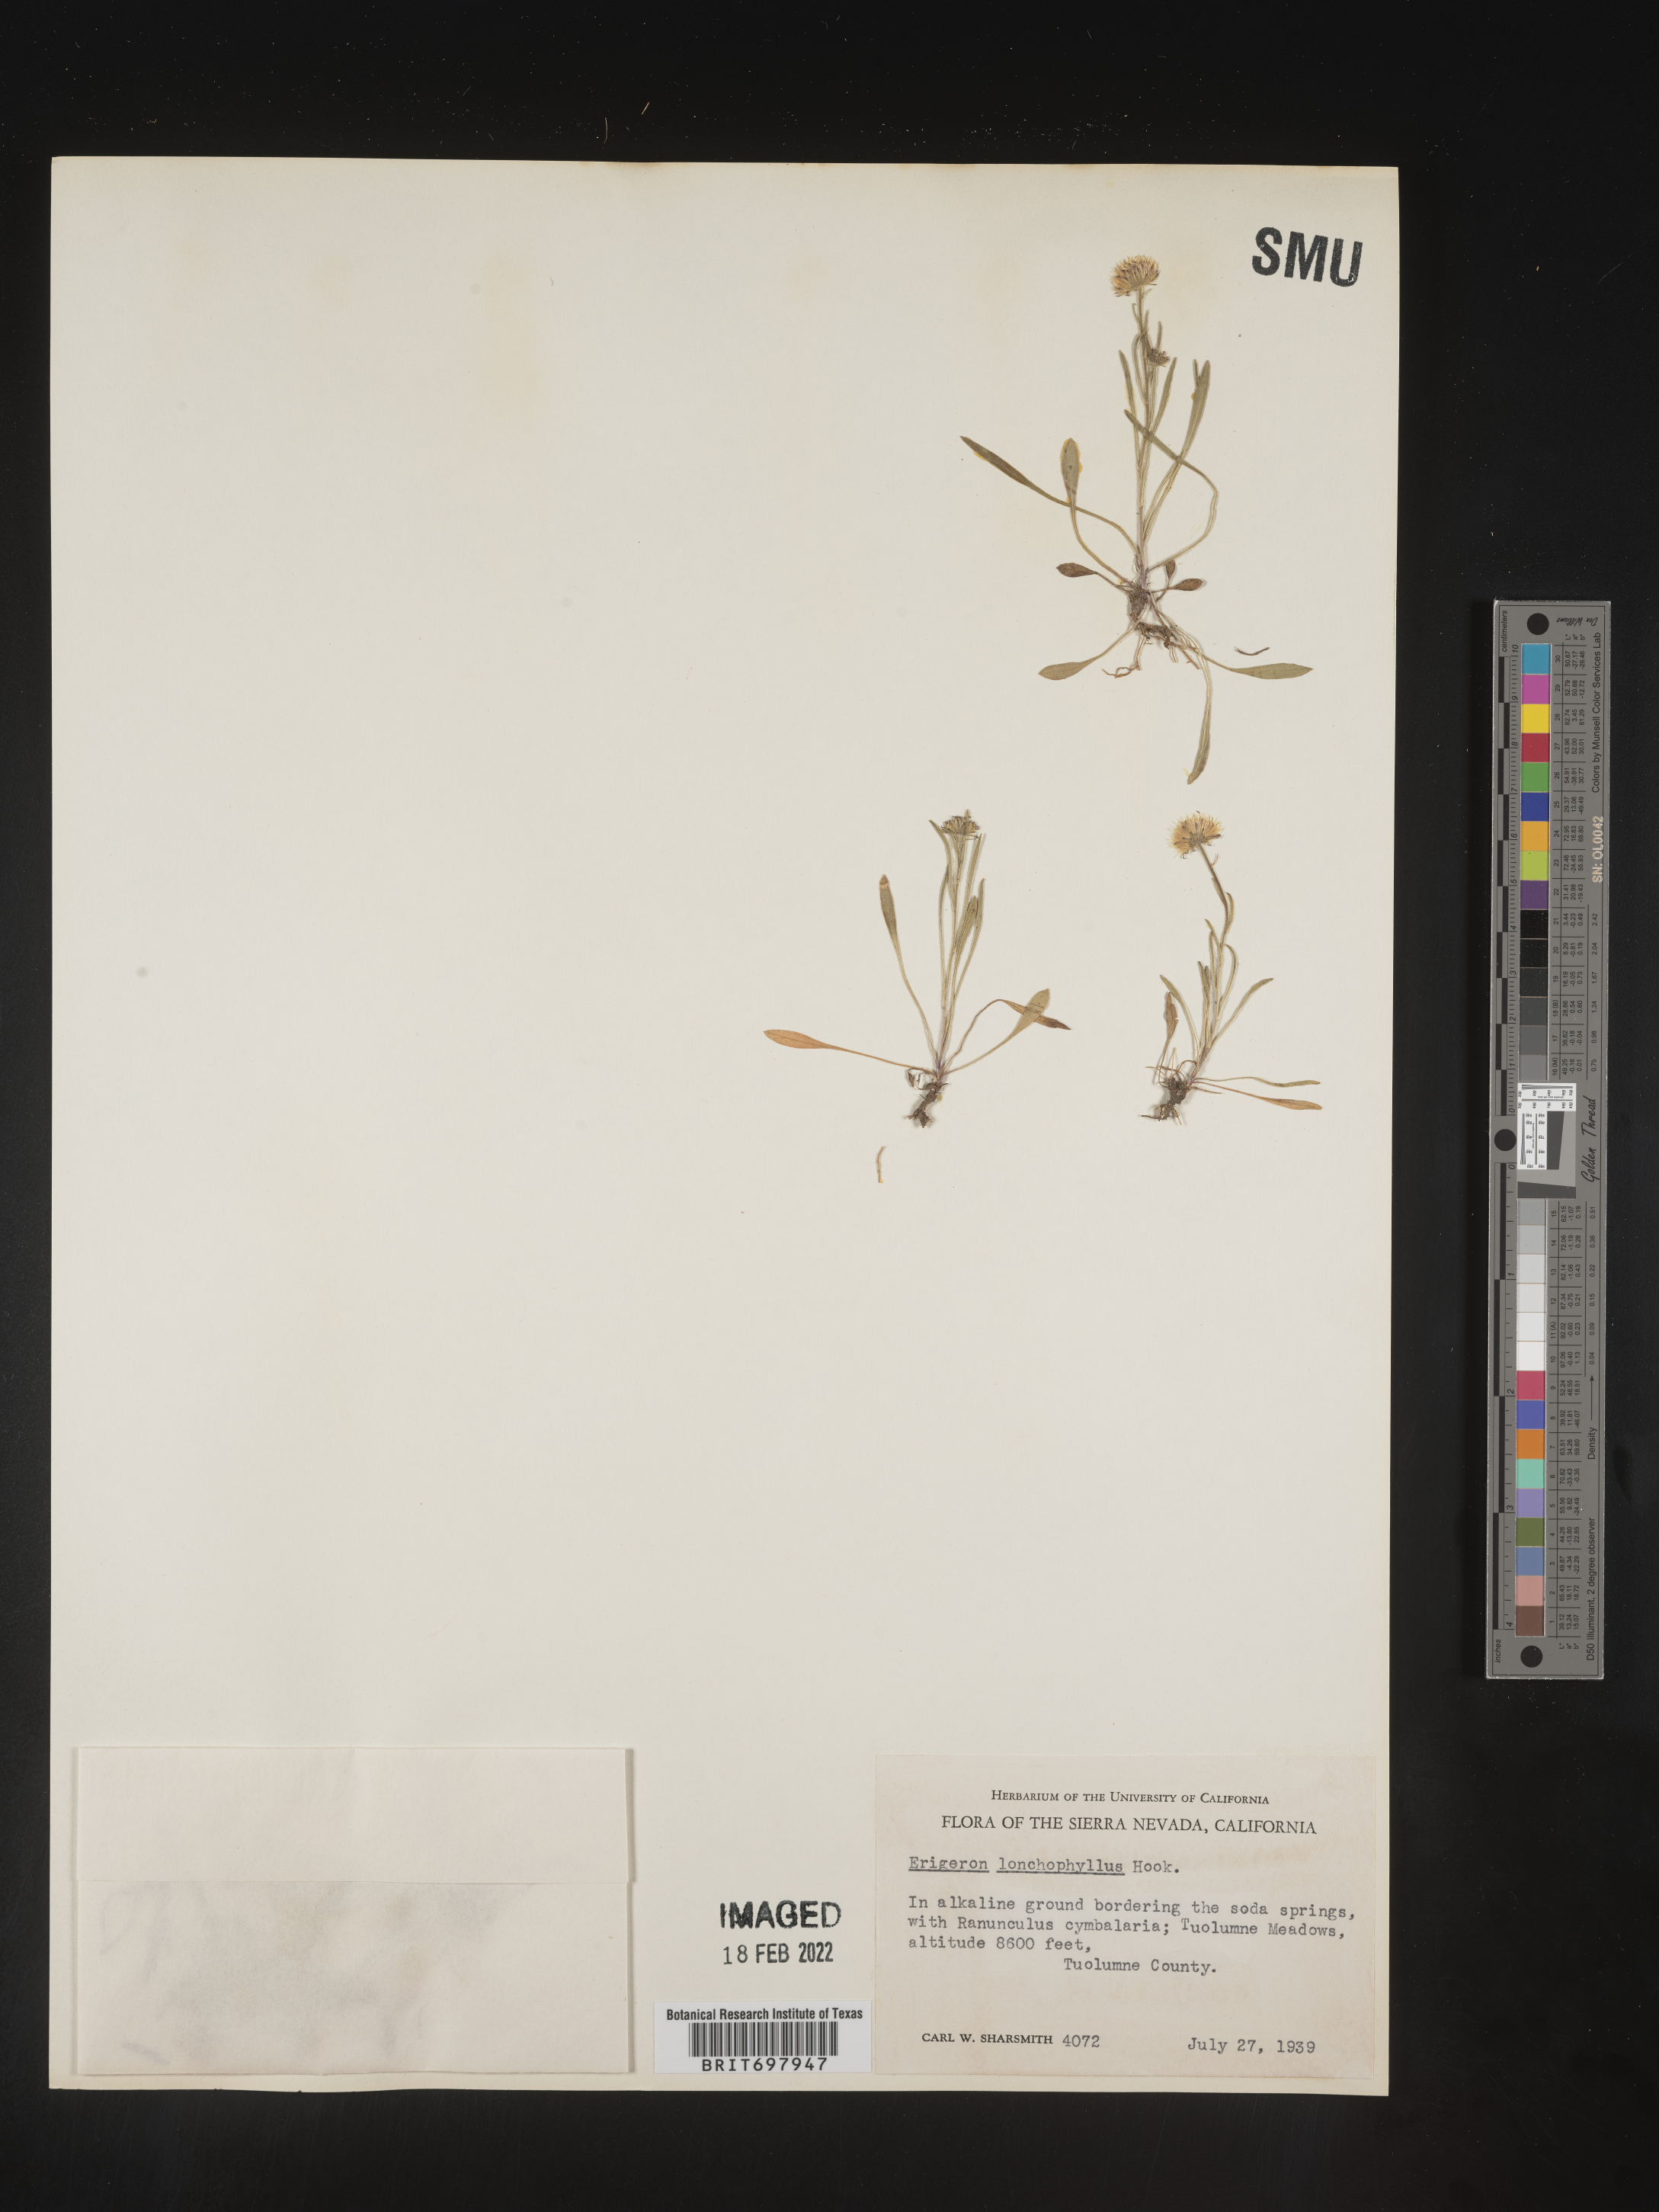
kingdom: Plantae
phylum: Tracheophyta
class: Magnoliopsida
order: Asterales
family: Asteraceae
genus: Erigeron
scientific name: Erigeron lonchophyllus
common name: Short-ray fleabane
